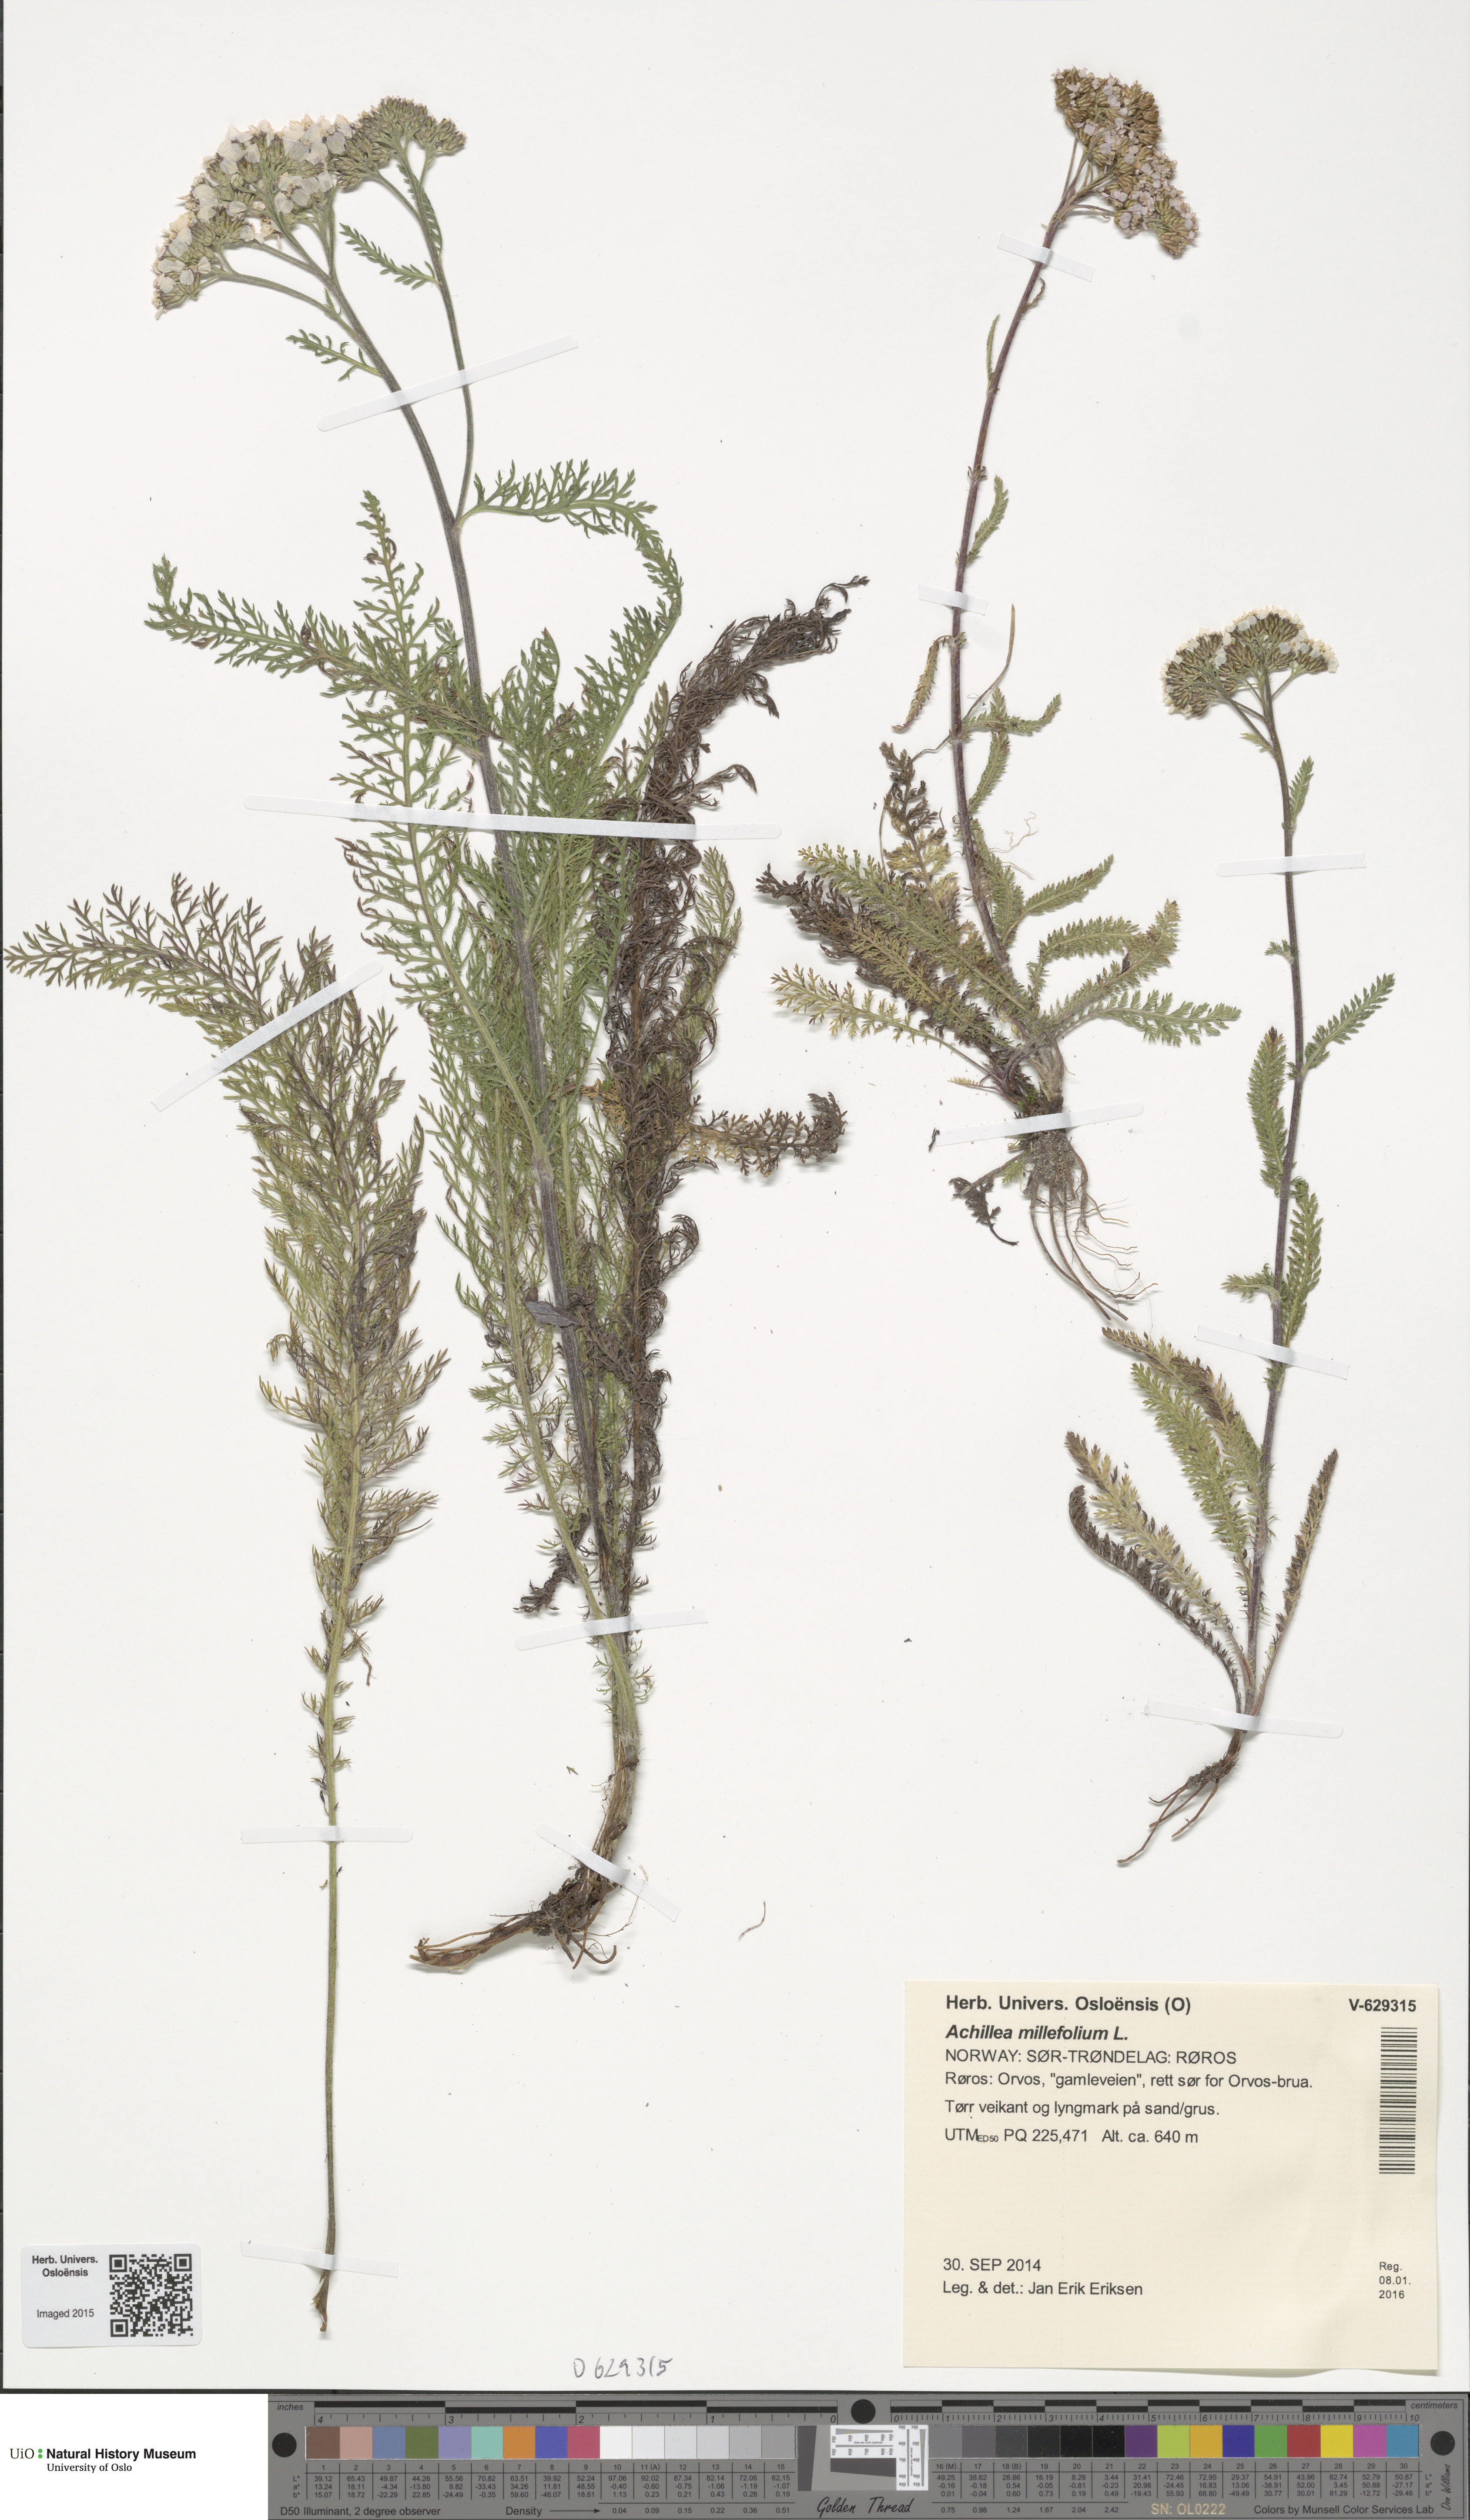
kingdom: Plantae
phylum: Tracheophyta
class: Magnoliopsida
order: Asterales
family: Asteraceae
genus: Achillea
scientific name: Achillea millefolium
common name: Yarrow
